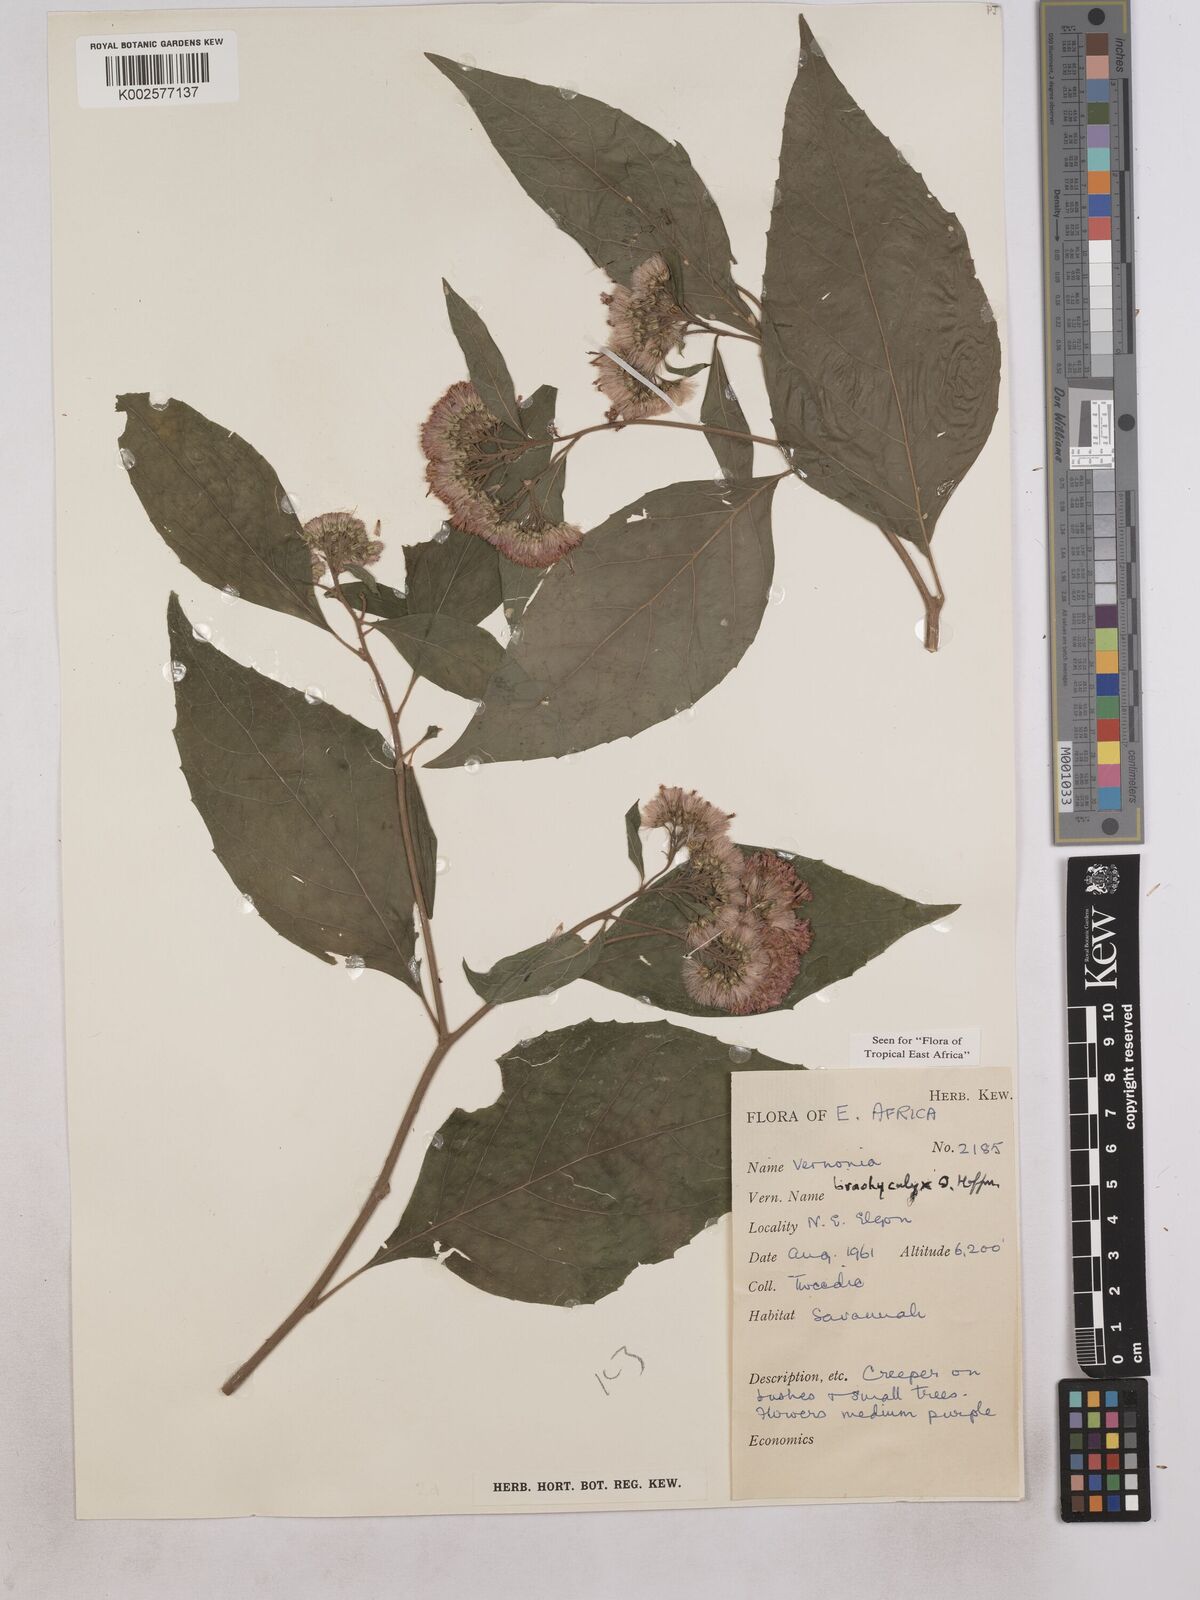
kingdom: Plantae
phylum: Tracheophyta
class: Magnoliopsida
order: Asterales
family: Asteraceae
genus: Hoffmannanthus
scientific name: Hoffmannanthus abbotianus
